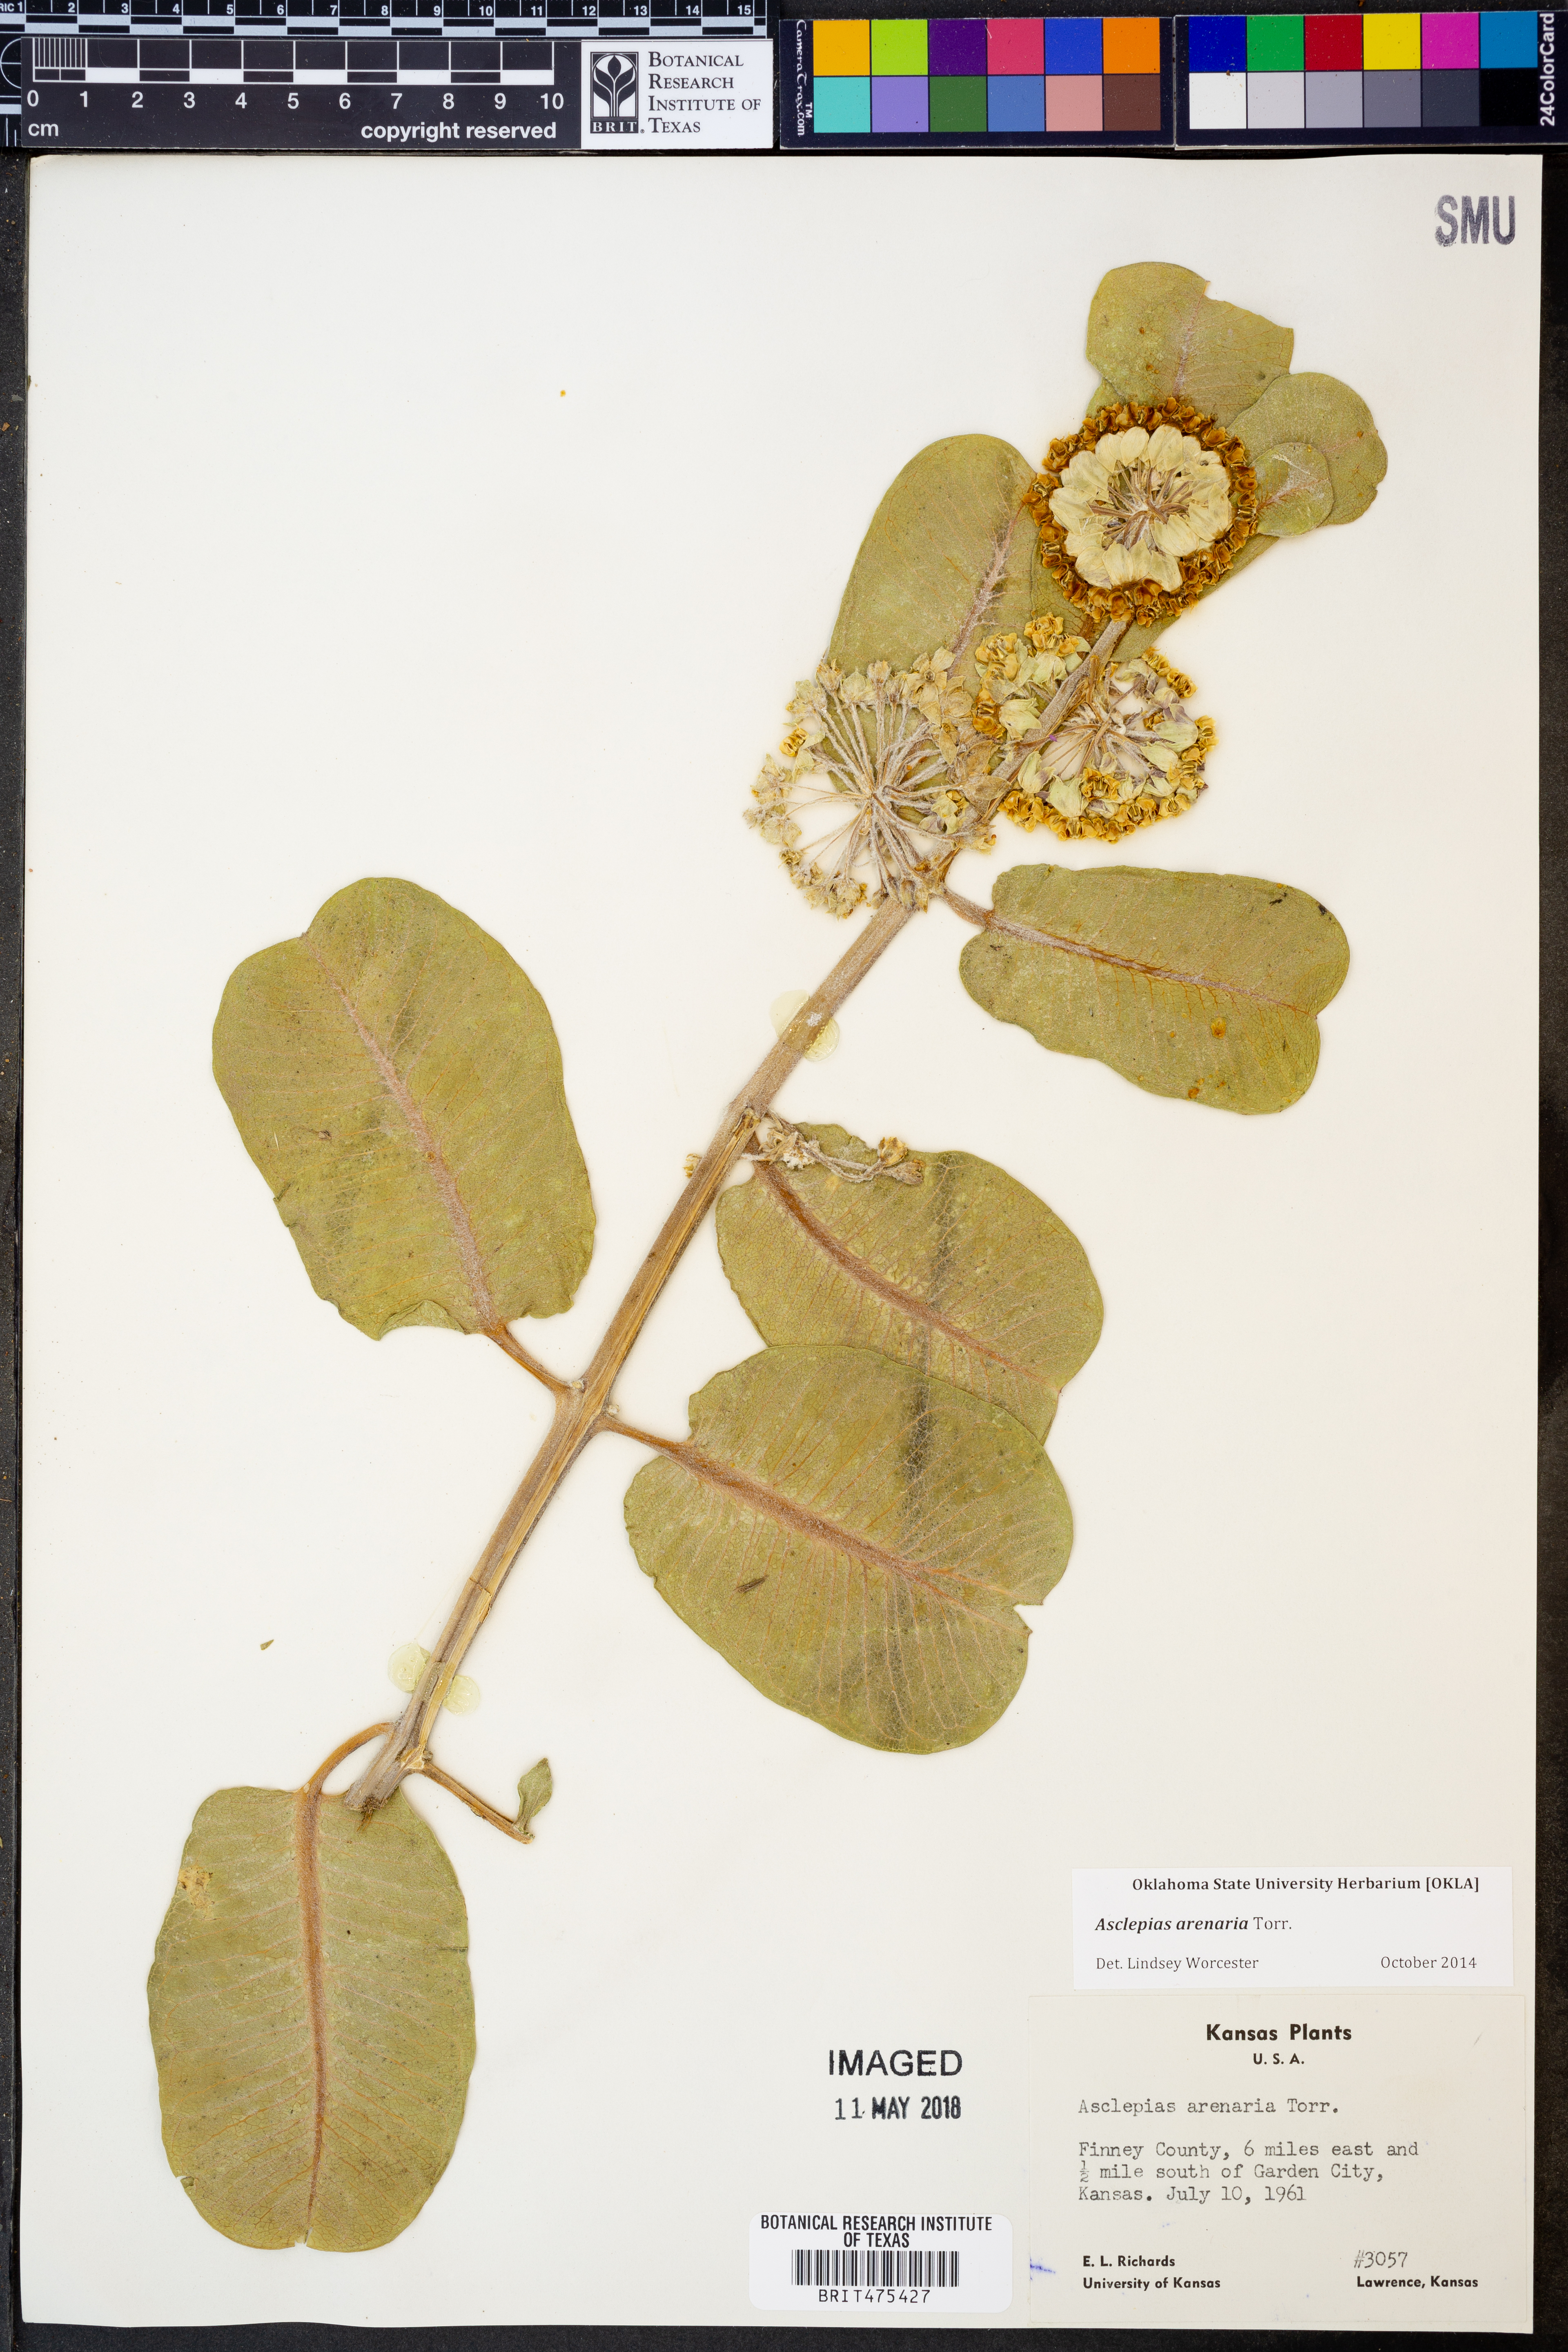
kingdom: Plantae
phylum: Tracheophyta
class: Magnoliopsida
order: Gentianales
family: Apocynaceae
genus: Asclepias
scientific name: Asclepias arenaria
